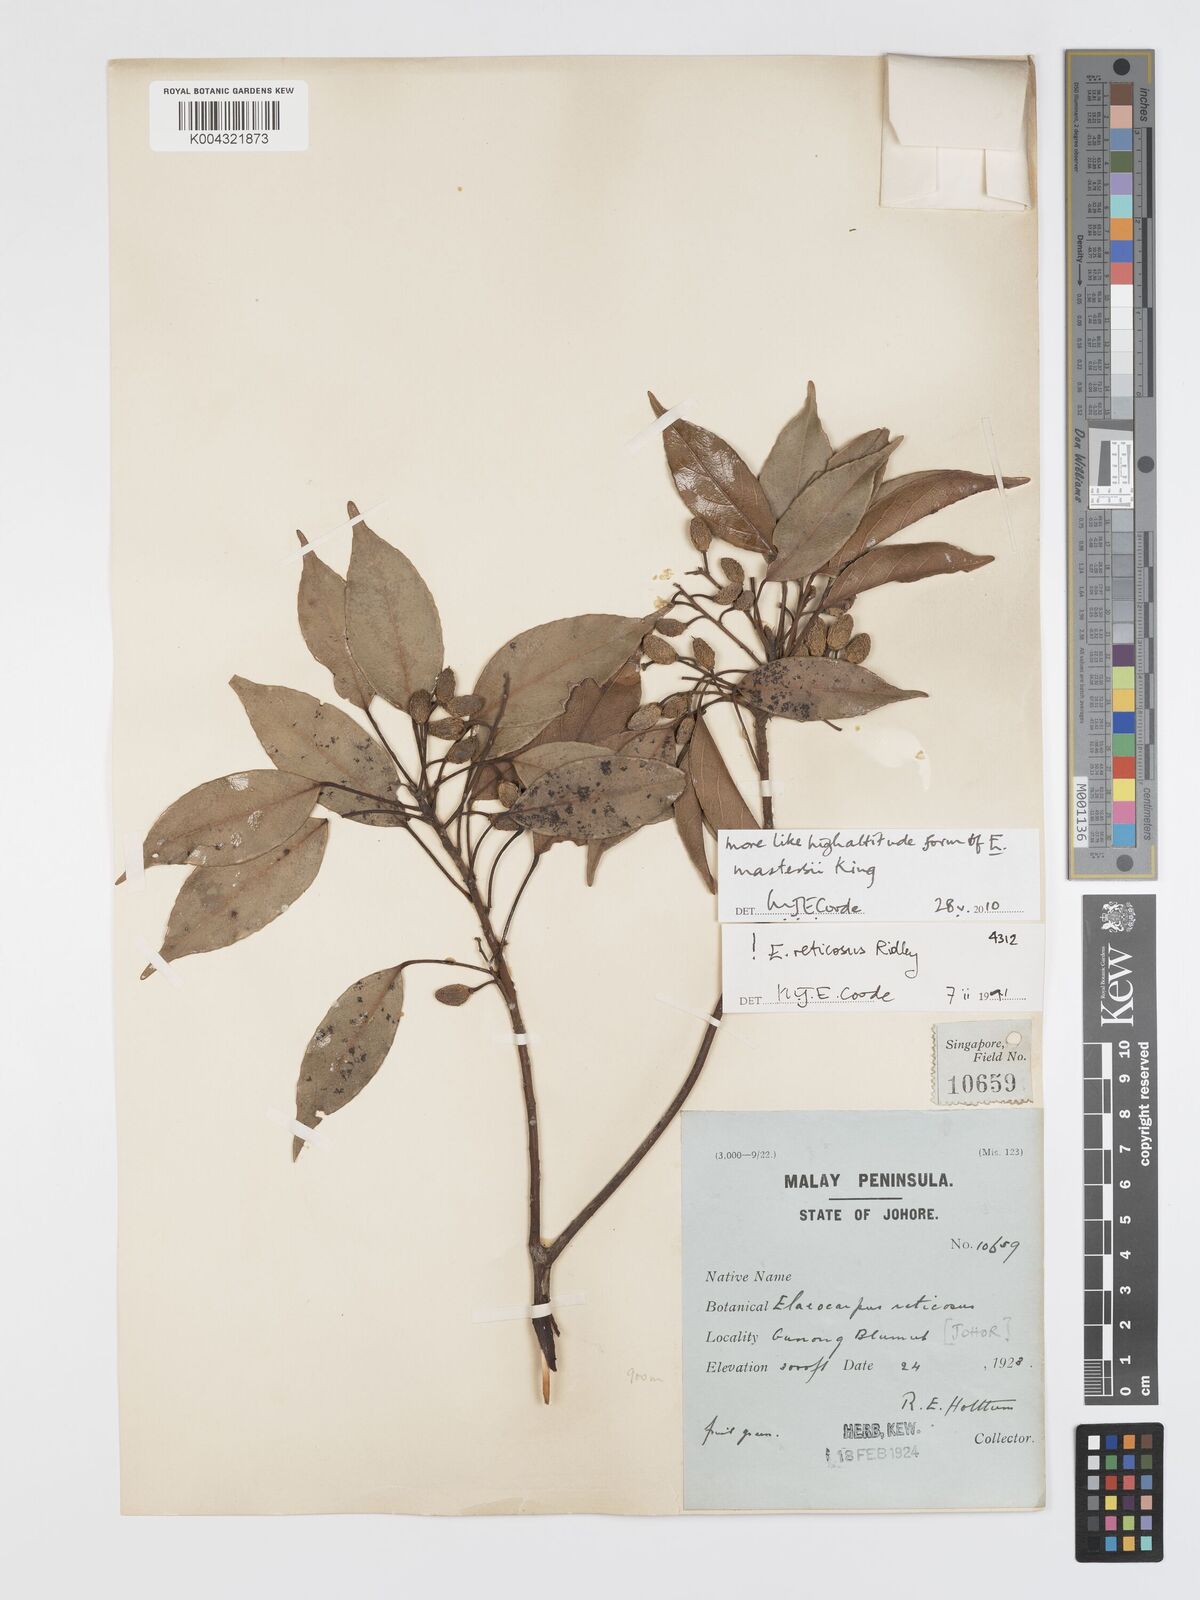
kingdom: Plantae
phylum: Tracheophyta
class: Magnoliopsida
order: Oxalidales
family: Elaeocarpaceae
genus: Elaeocarpus
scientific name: Elaeocarpus mastersii
